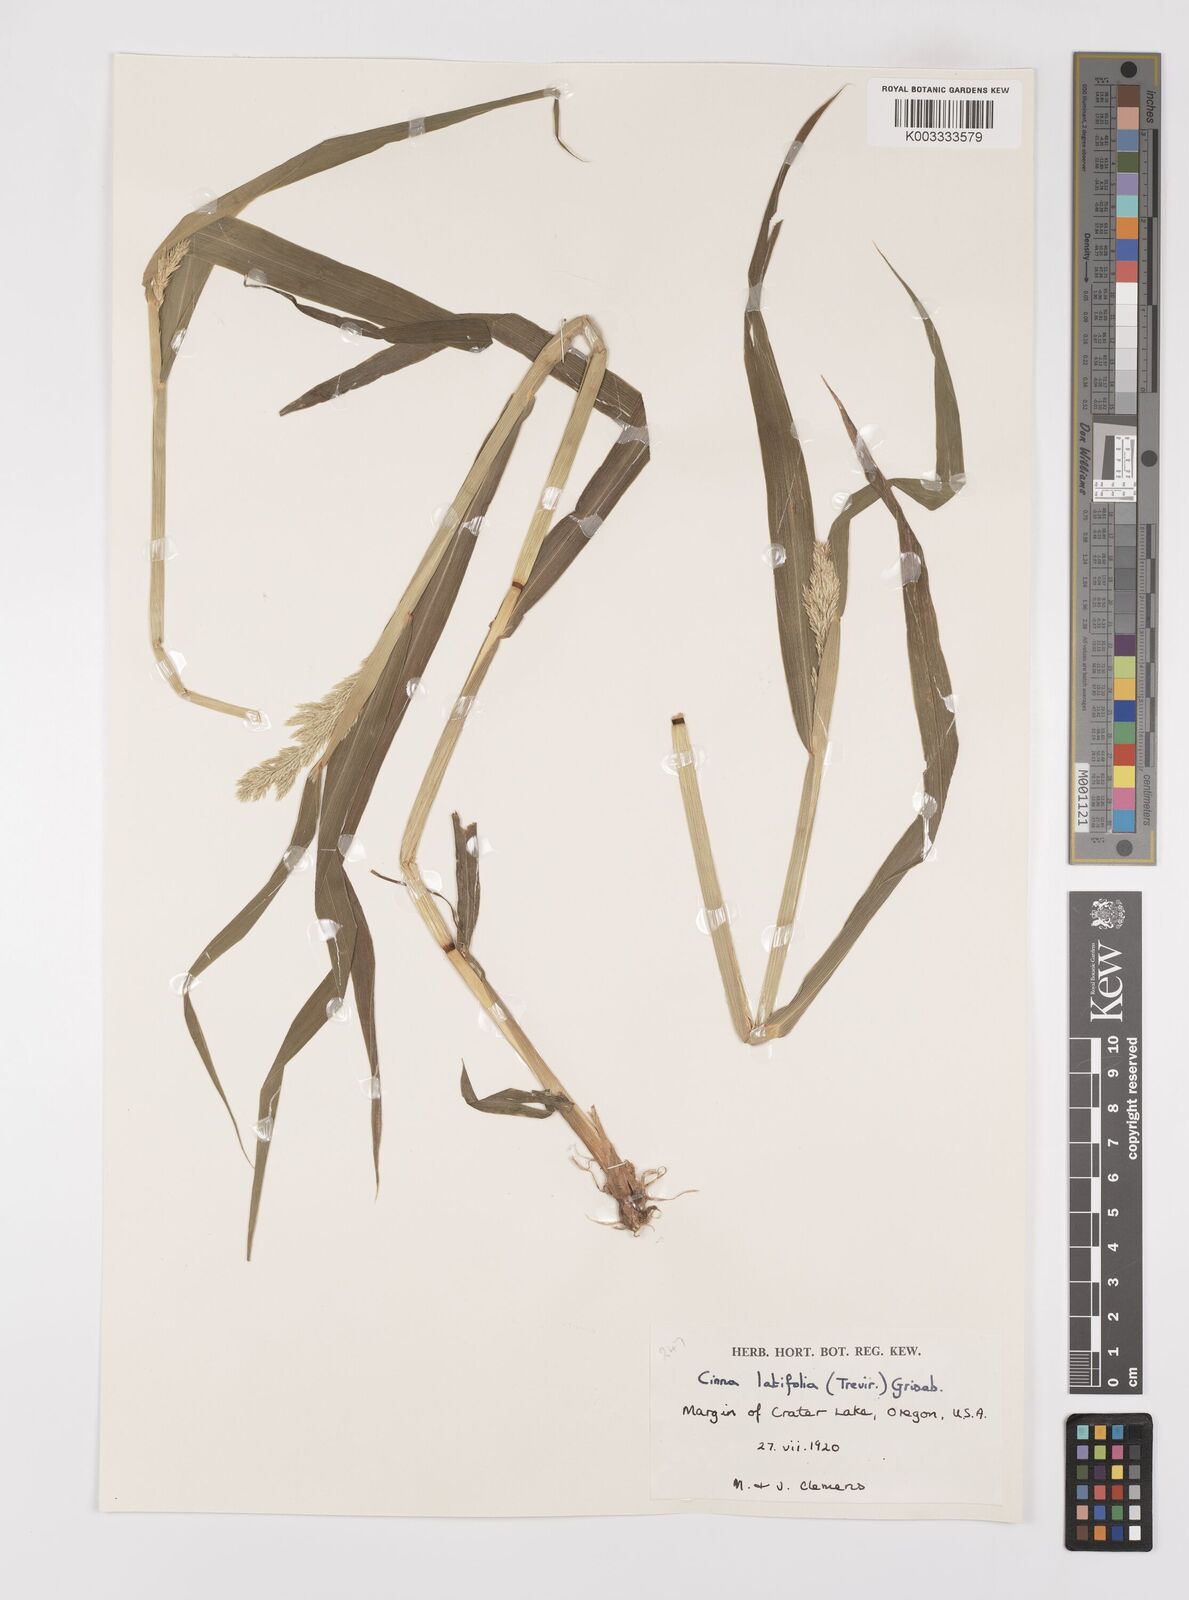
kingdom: Plantae
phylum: Tracheophyta
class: Liliopsida
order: Poales
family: Poaceae
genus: Cinna
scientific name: Cinna latifolia
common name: Drooping woodreed
